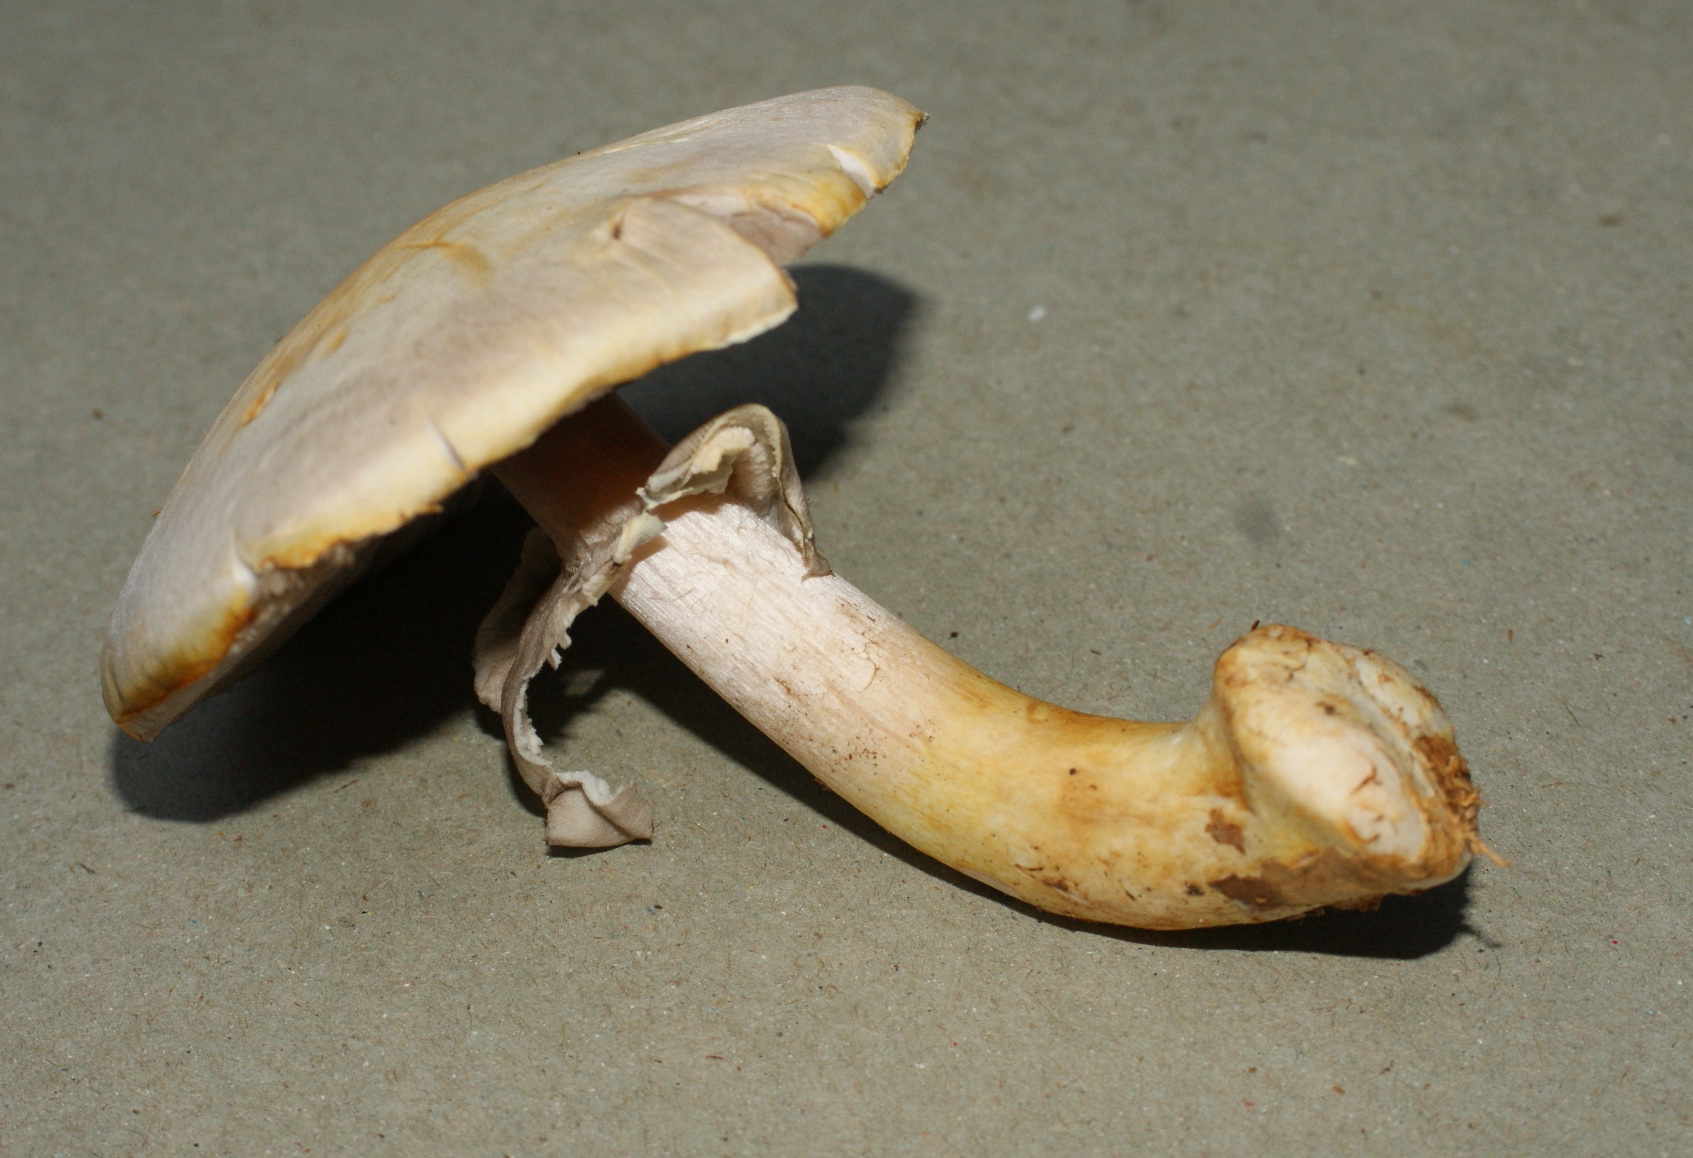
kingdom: Fungi
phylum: Basidiomycota
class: Agaricomycetes
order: Agaricales
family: Agaricaceae
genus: Agaricus
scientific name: Agaricus sylvicola
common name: skiveknoldet champignon
